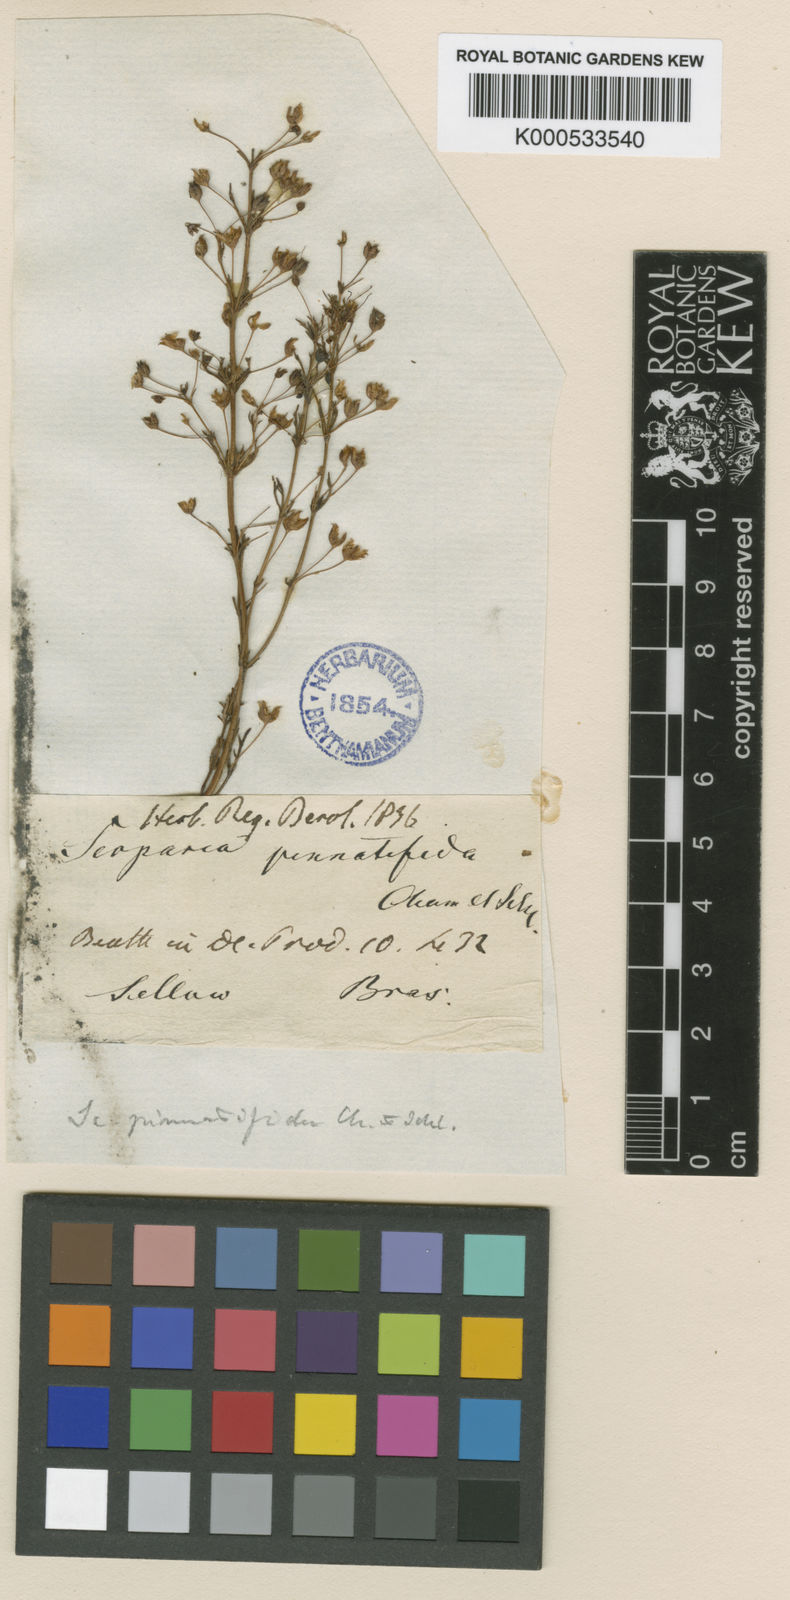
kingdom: Plantae
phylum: Tracheophyta
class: Magnoliopsida
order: Lamiales
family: Plantaginaceae
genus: Scoparia
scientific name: Scoparia pinnatifida
